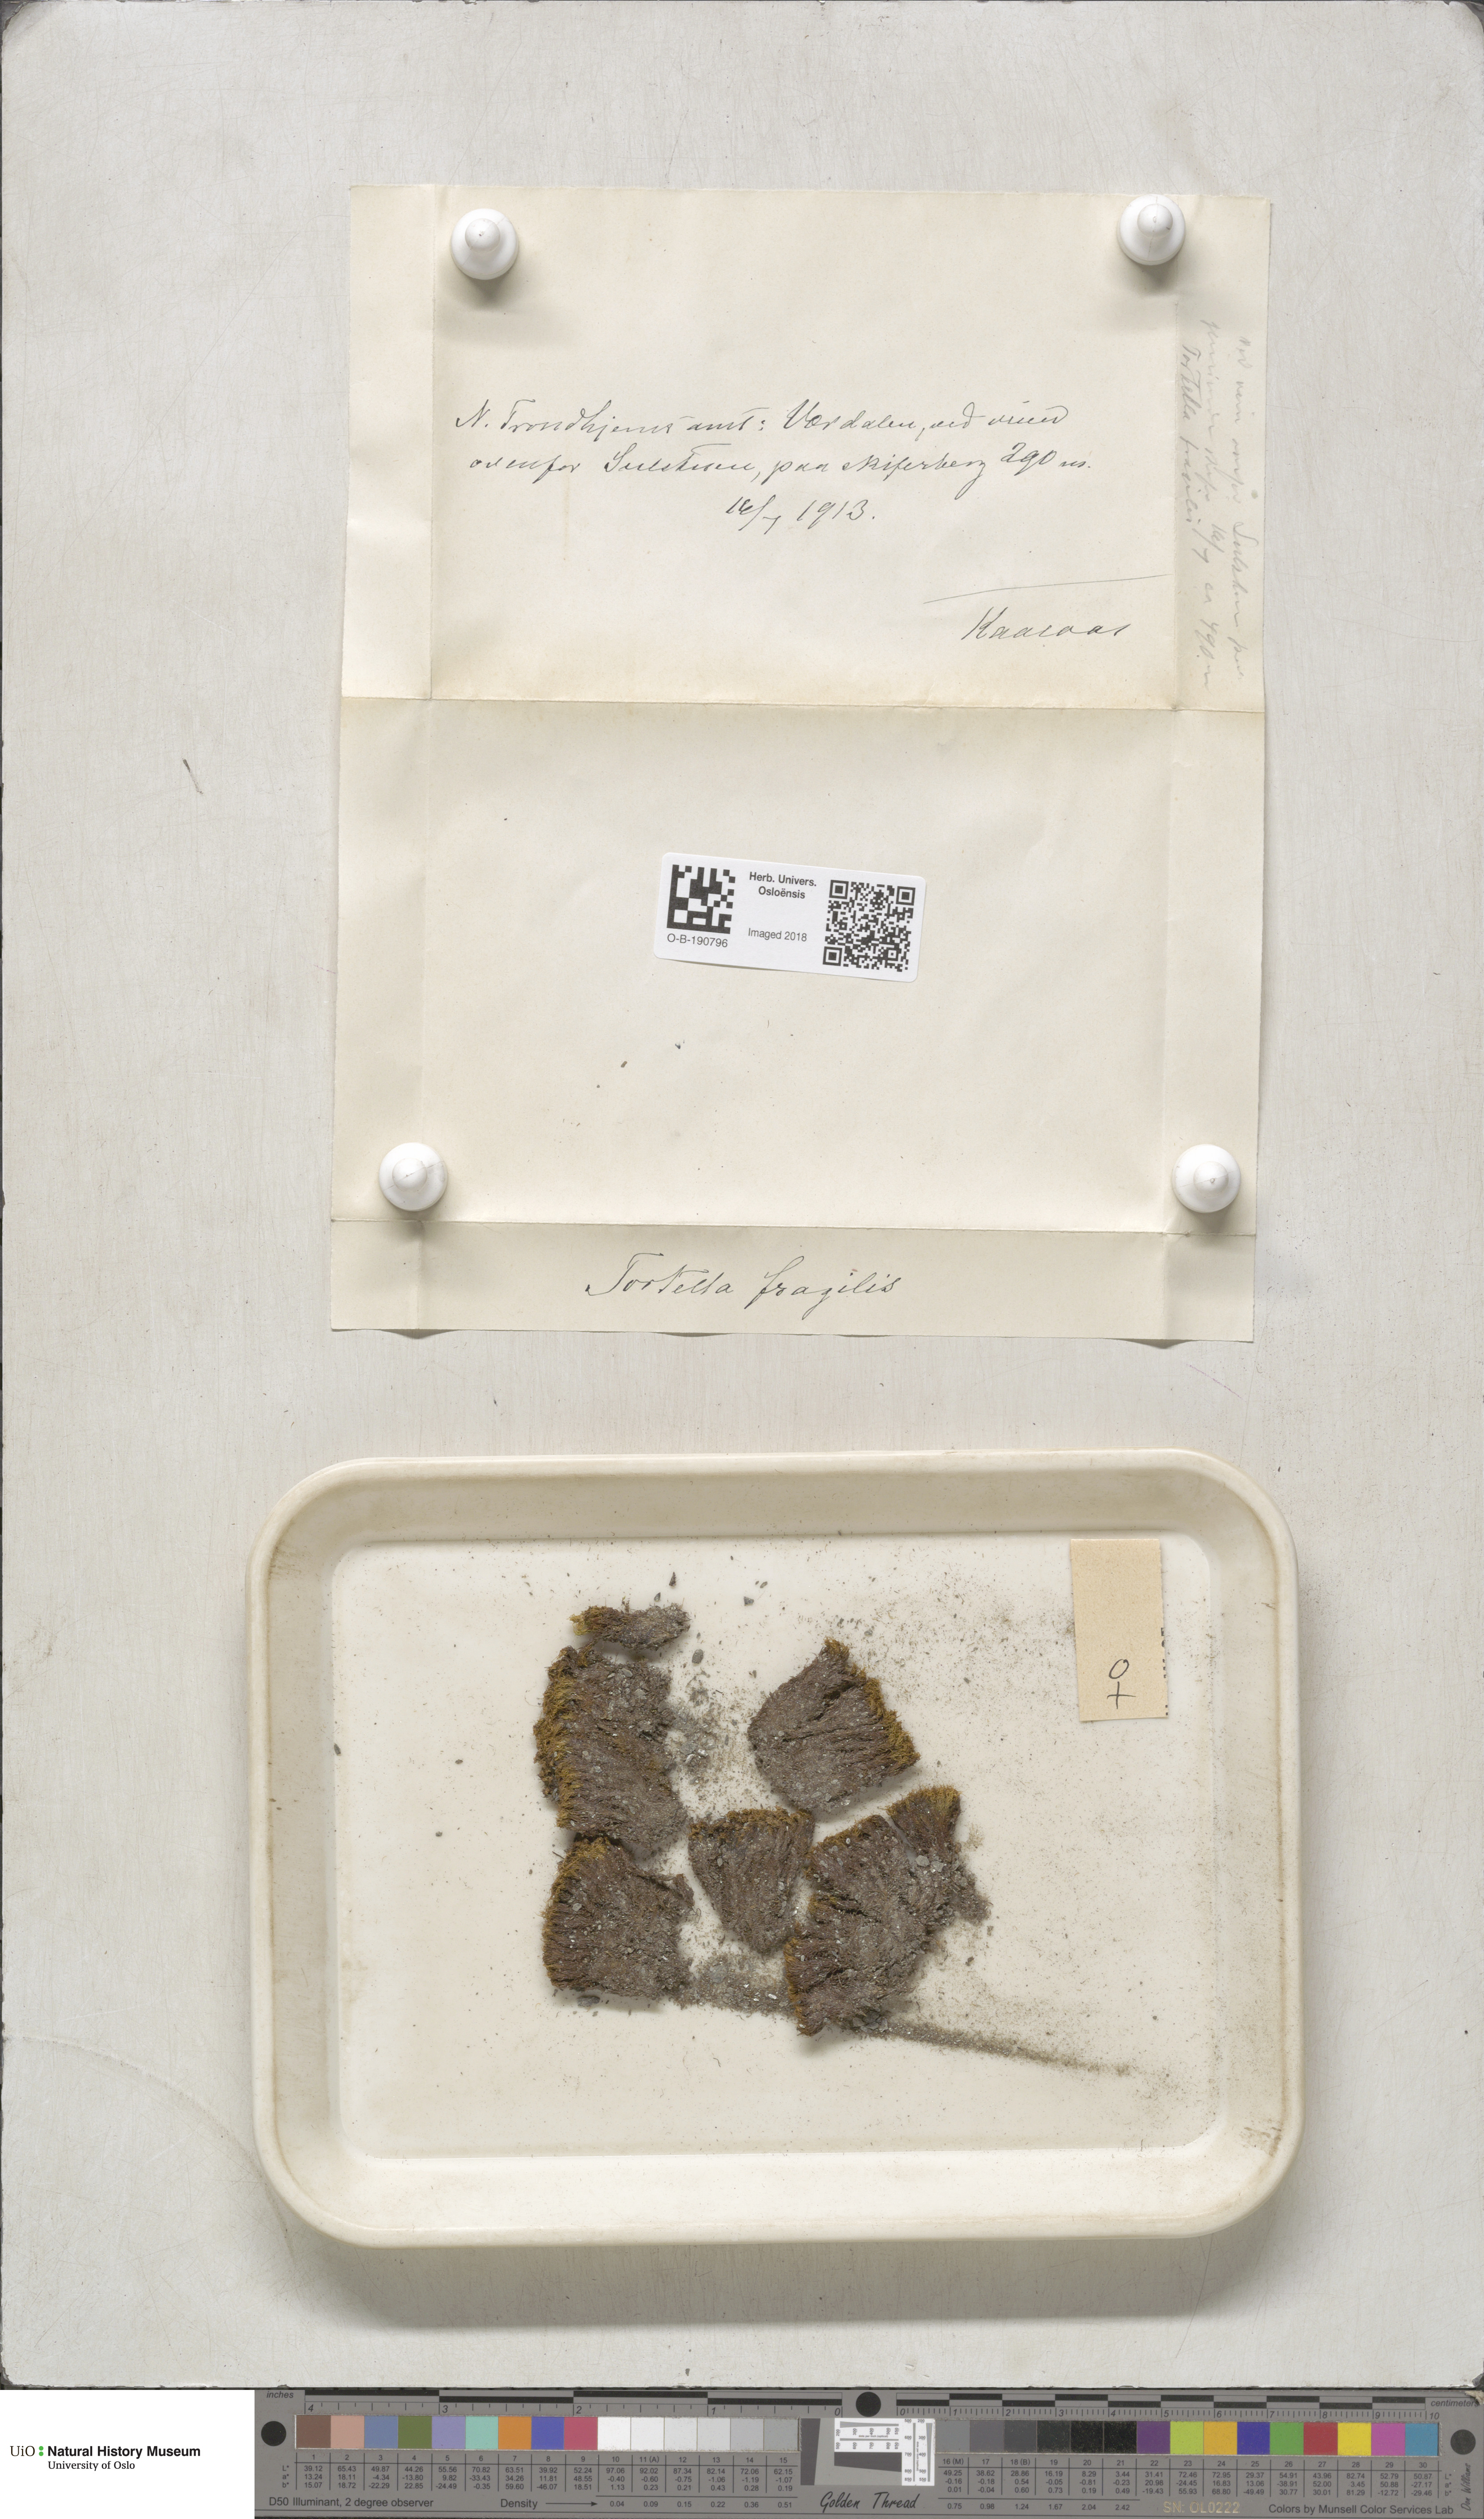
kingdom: Plantae
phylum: Bryophyta
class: Bryopsida
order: Pottiales
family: Pottiaceae
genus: Tortella
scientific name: Tortella fragilis
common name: Fragile twisted moss
